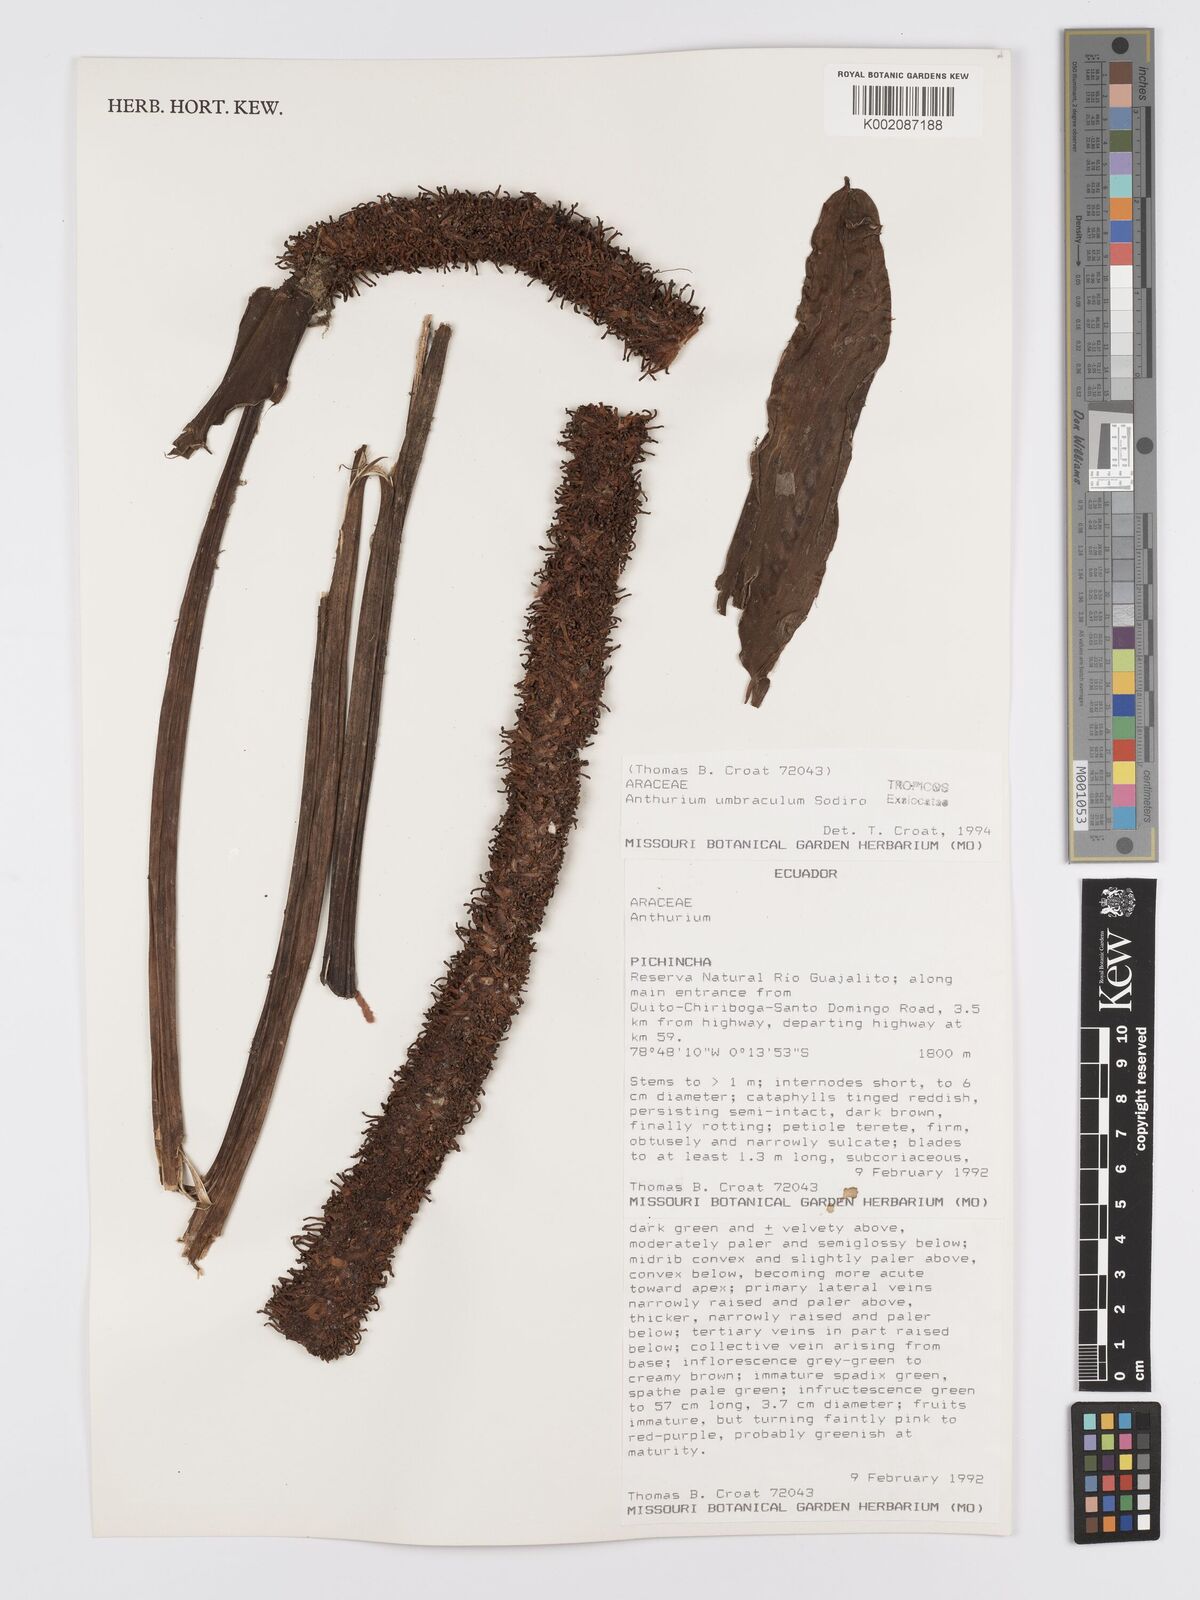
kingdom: Plantae
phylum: Tracheophyta
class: Liliopsida
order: Alismatales
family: Araceae
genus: Anthurium
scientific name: Anthurium umbraculum
